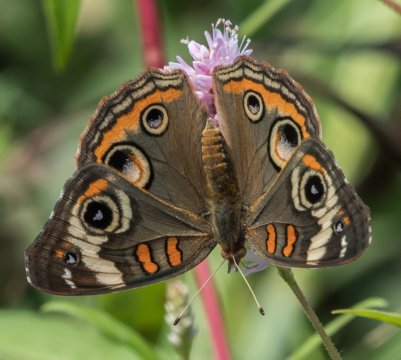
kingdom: Animalia
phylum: Arthropoda
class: Insecta
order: Lepidoptera
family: Nymphalidae
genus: Junonia
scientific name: Junonia coenia
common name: Common Buckeye
